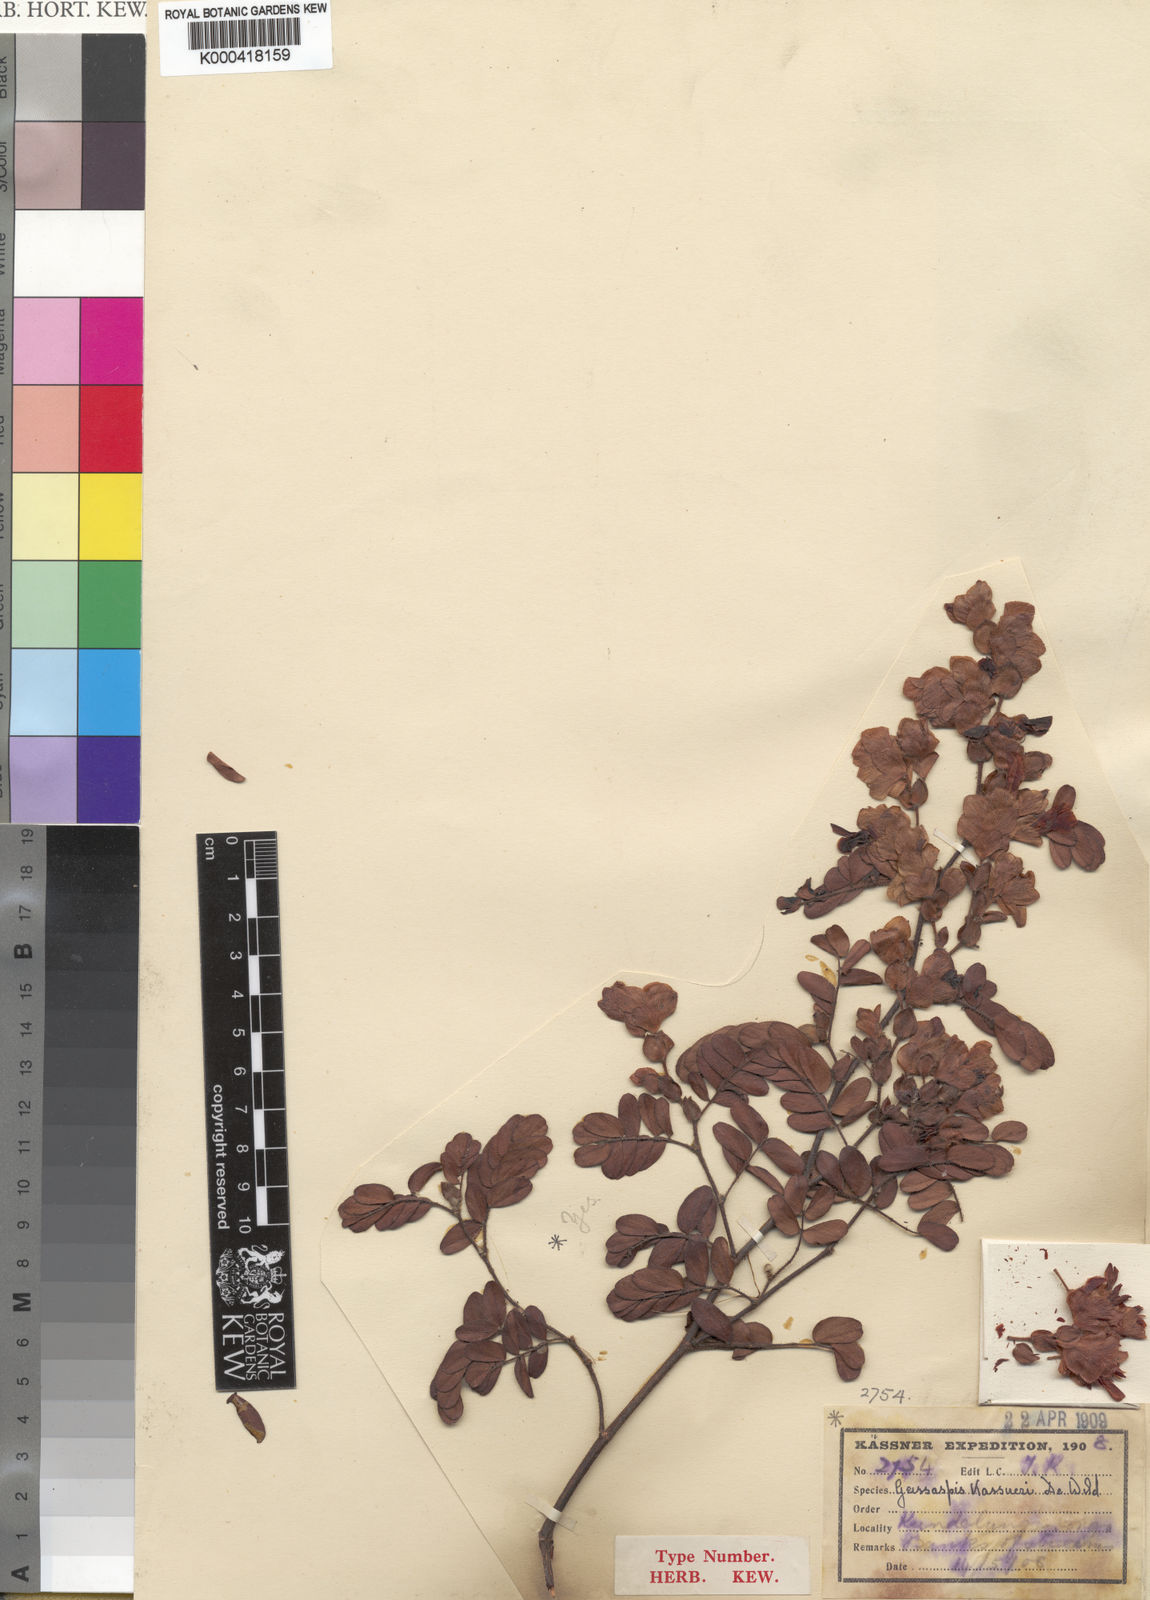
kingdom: Plantae
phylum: Tracheophyta
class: Magnoliopsida
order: Fabales
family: Fabaceae
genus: Humularia
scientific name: Humularia kassneri
